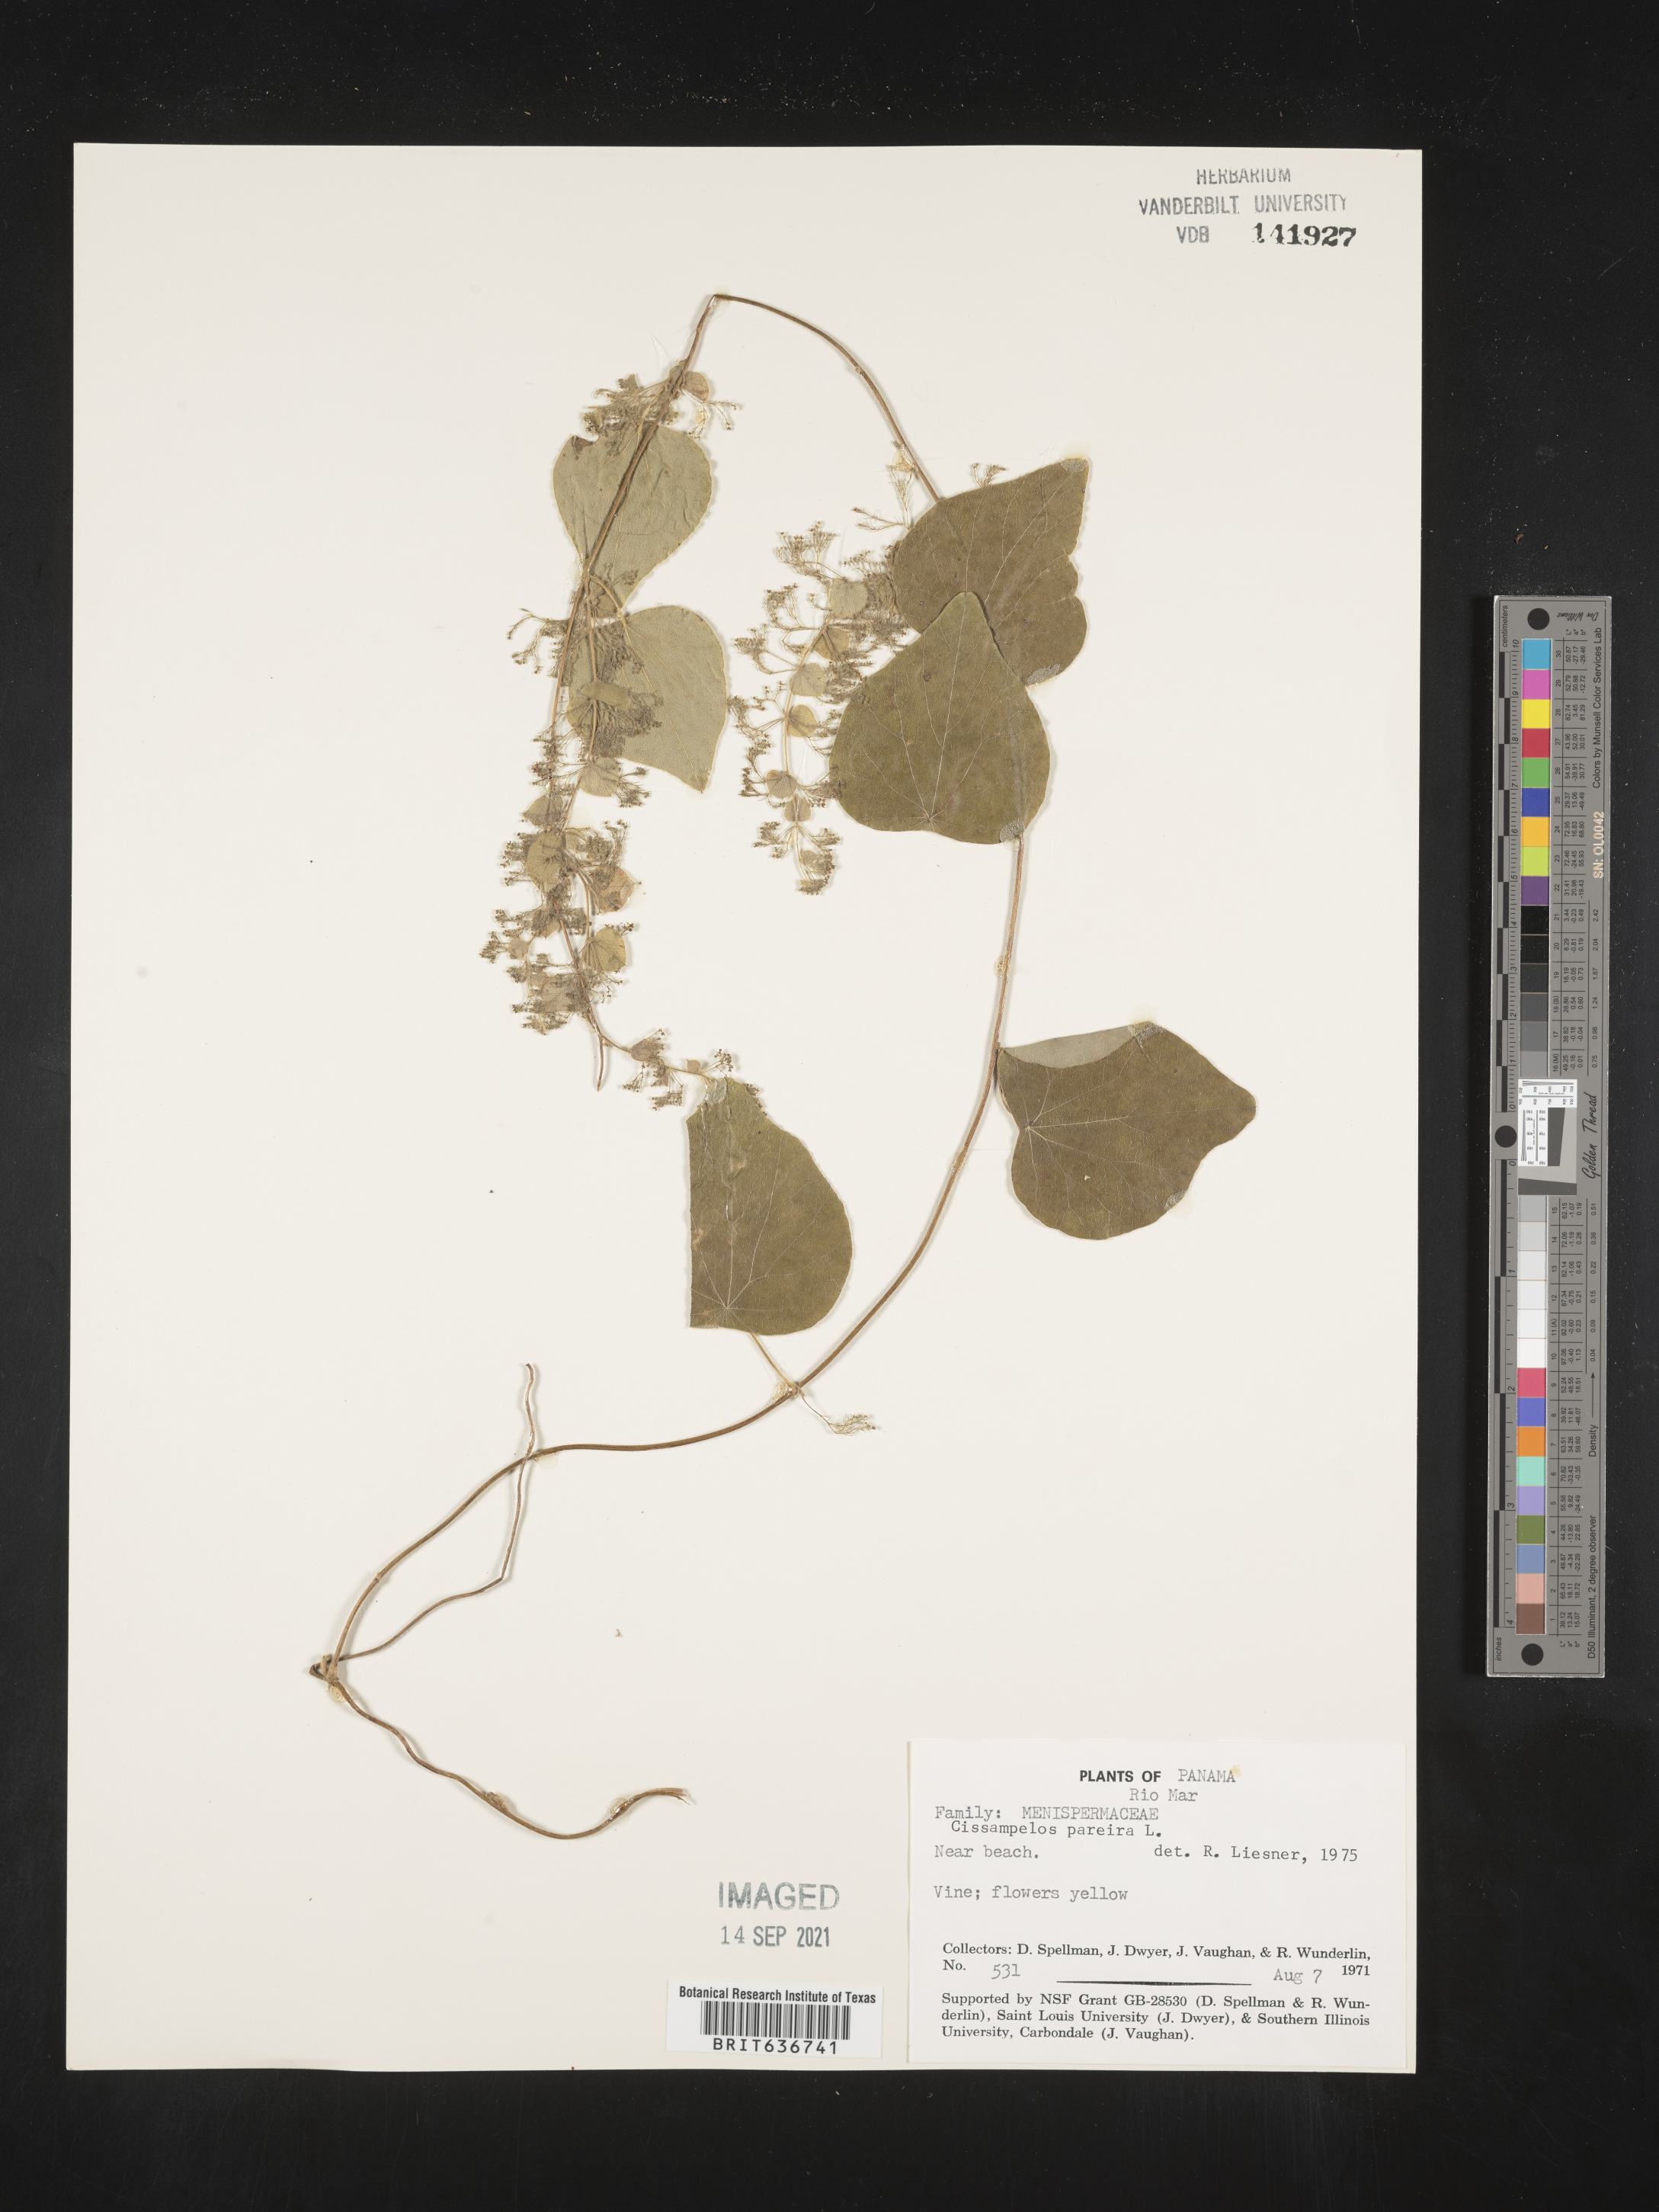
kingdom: Plantae
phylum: Tracheophyta
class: Magnoliopsida
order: Ranunculales
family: Menispermaceae
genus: Cissampelos
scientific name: Cissampelos
